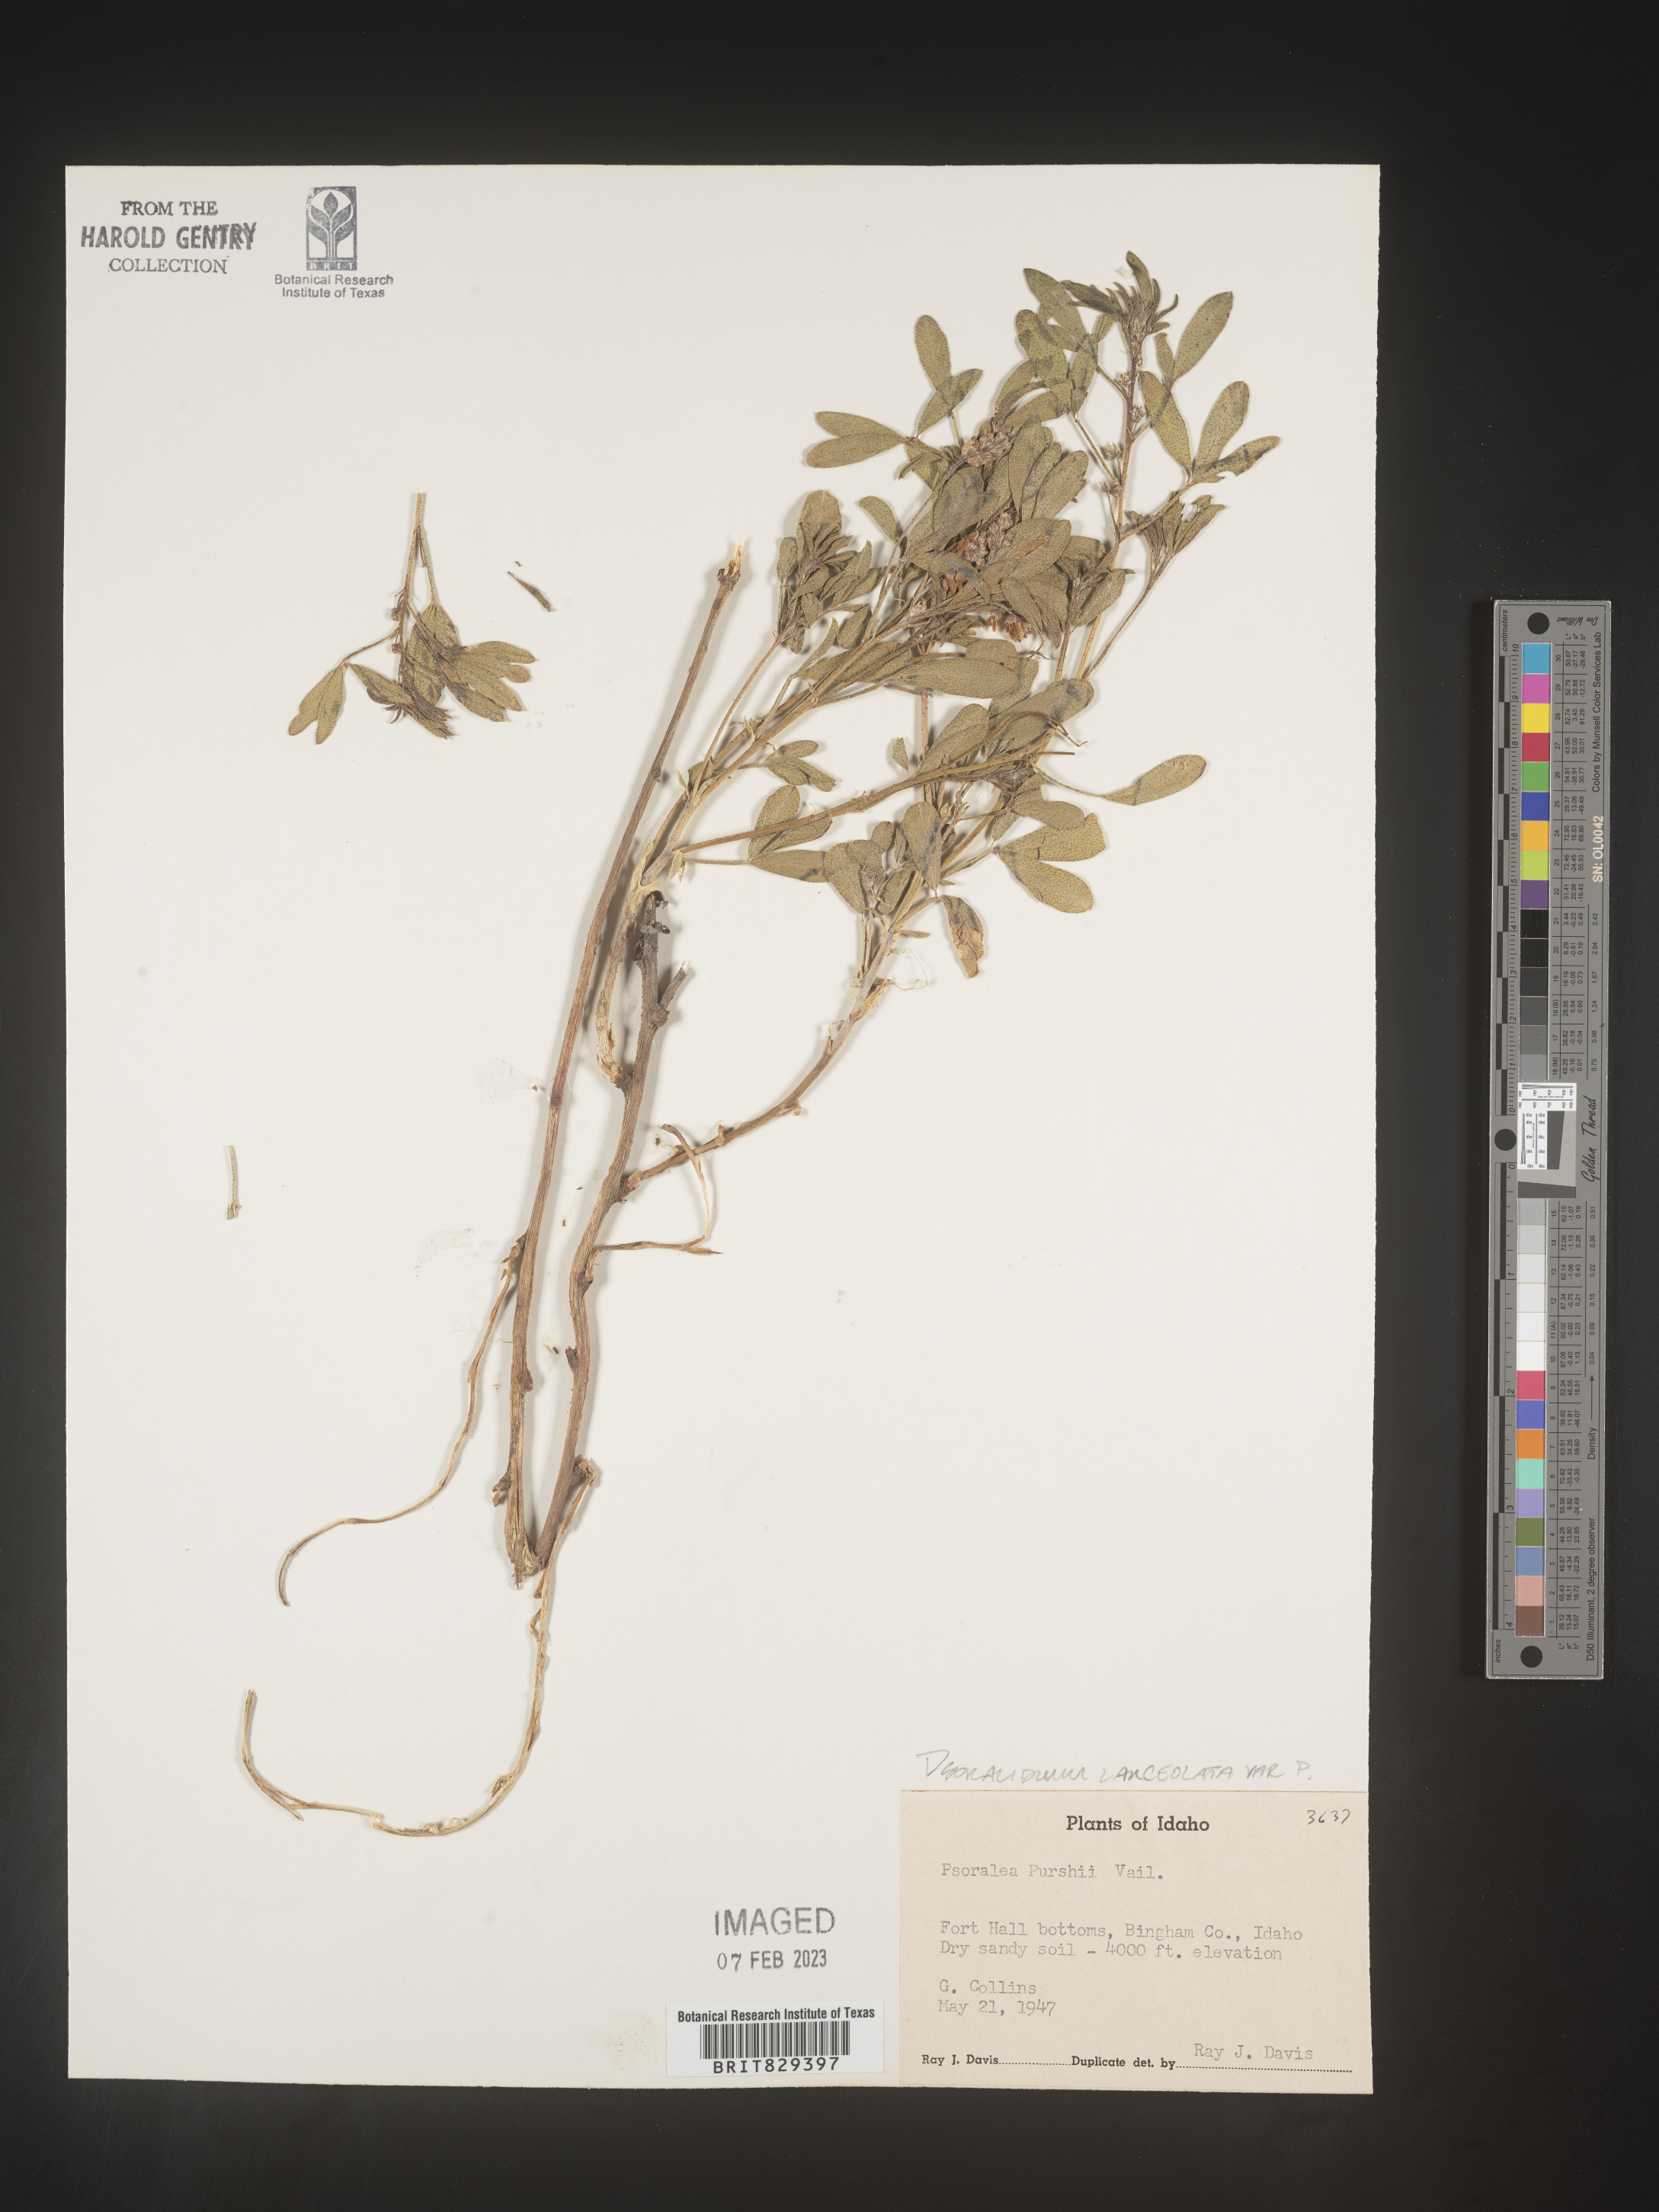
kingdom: Plantae
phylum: Tracheophyta
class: Magnoliopsida
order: Fabales
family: Fabaceae
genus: Psoralea
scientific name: Psoralea
